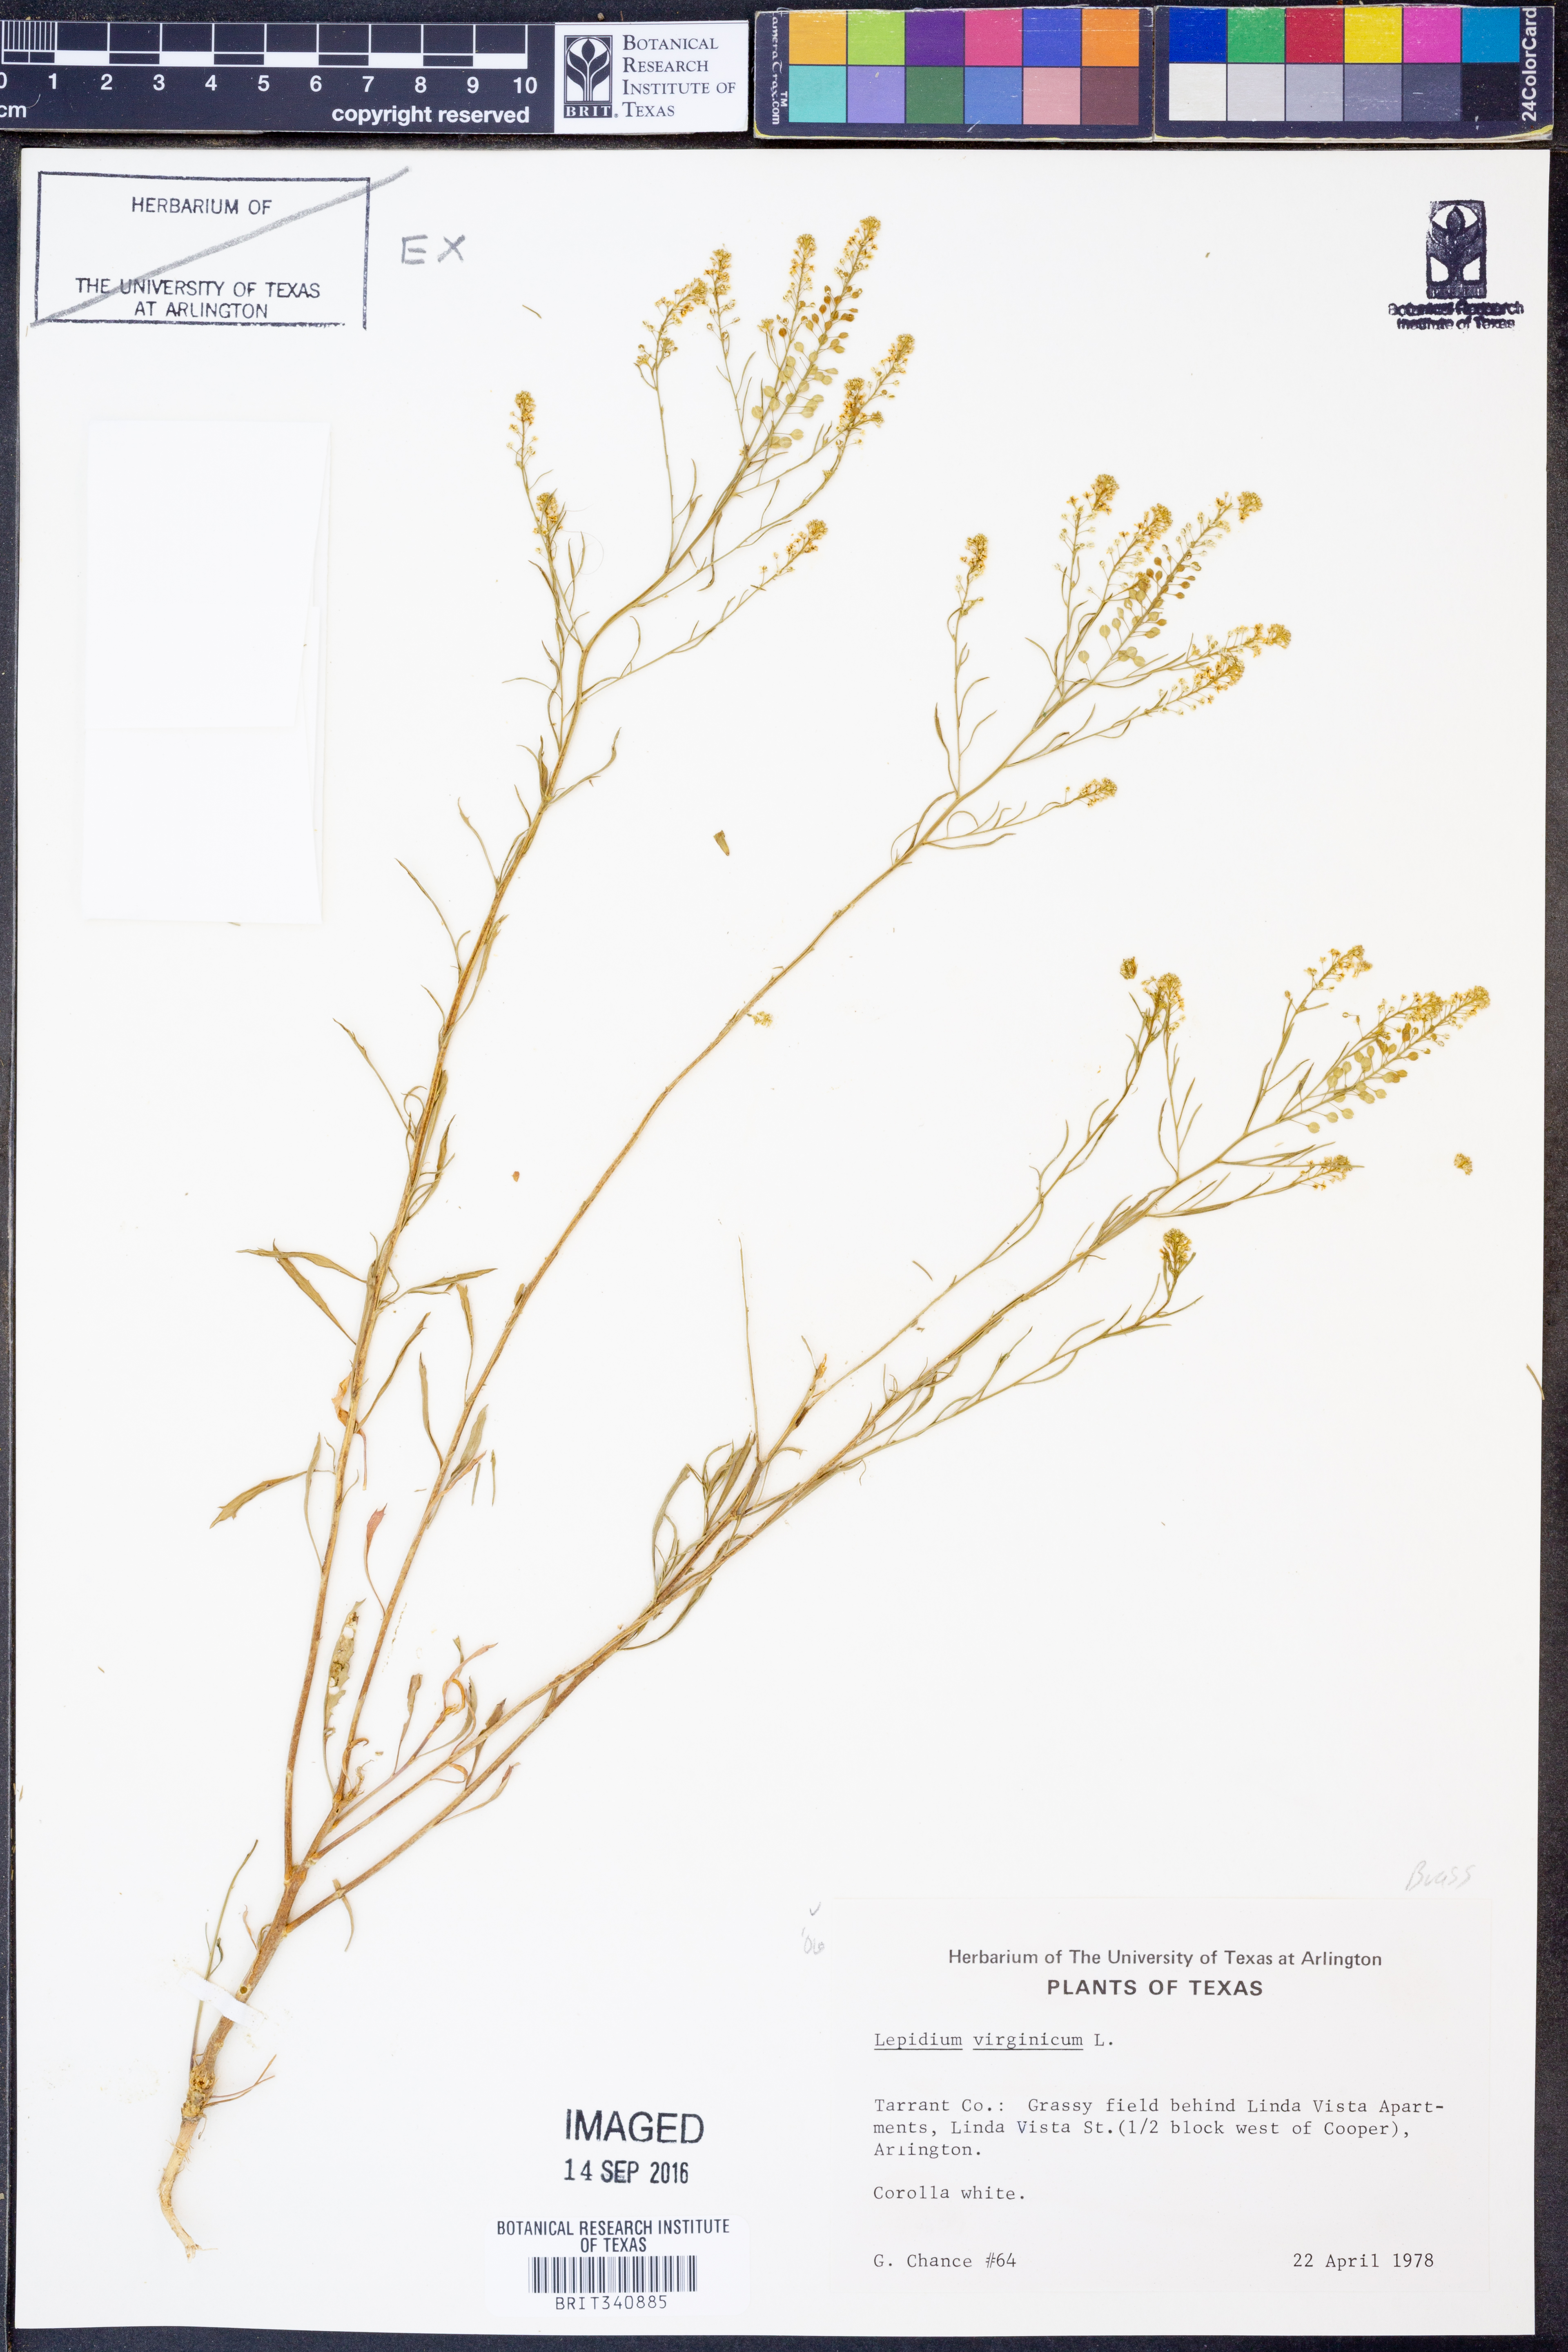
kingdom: Plantae
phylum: Tracheophyta
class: Magnoliopsida
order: Brassicales
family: Brassicaceae
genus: Lepidium
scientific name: Lepidium virginicum
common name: Least pepperwort
